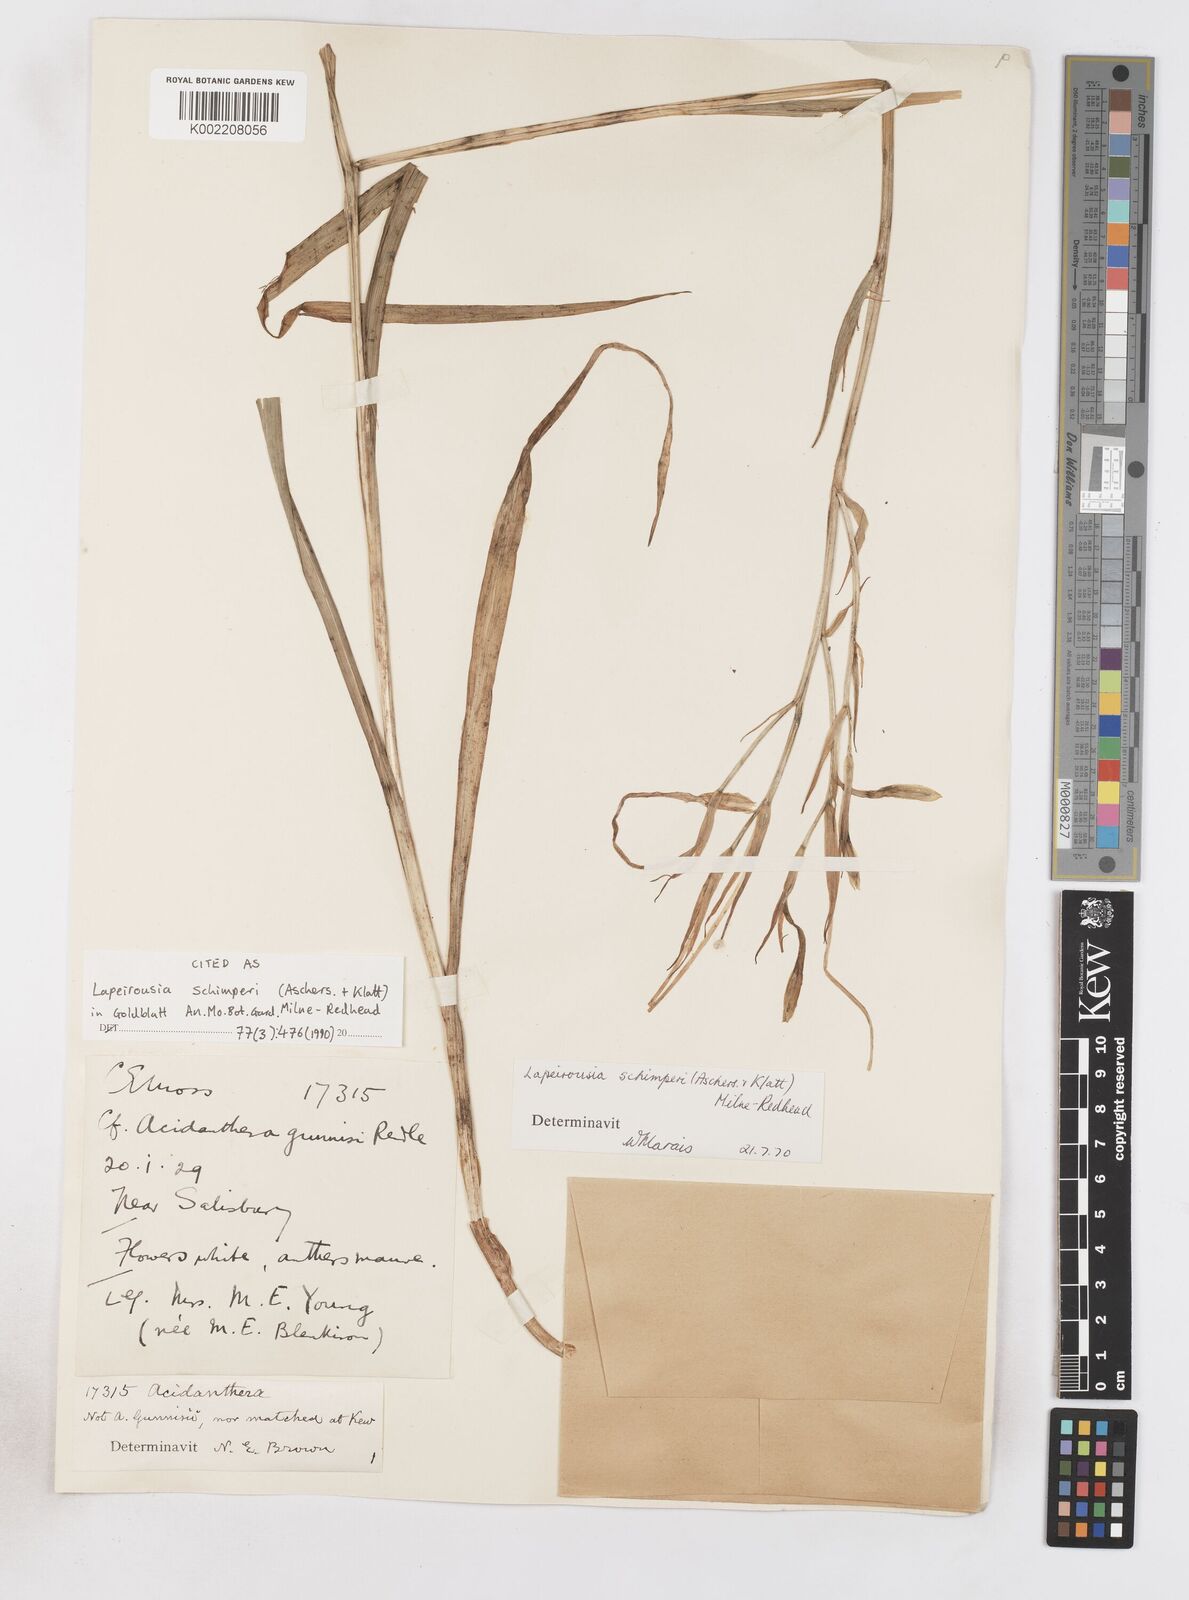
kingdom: Plantae
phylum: Tracheophyta
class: Liliopsida
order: Asparagales
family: Iridaceae
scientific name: Iridaceae
